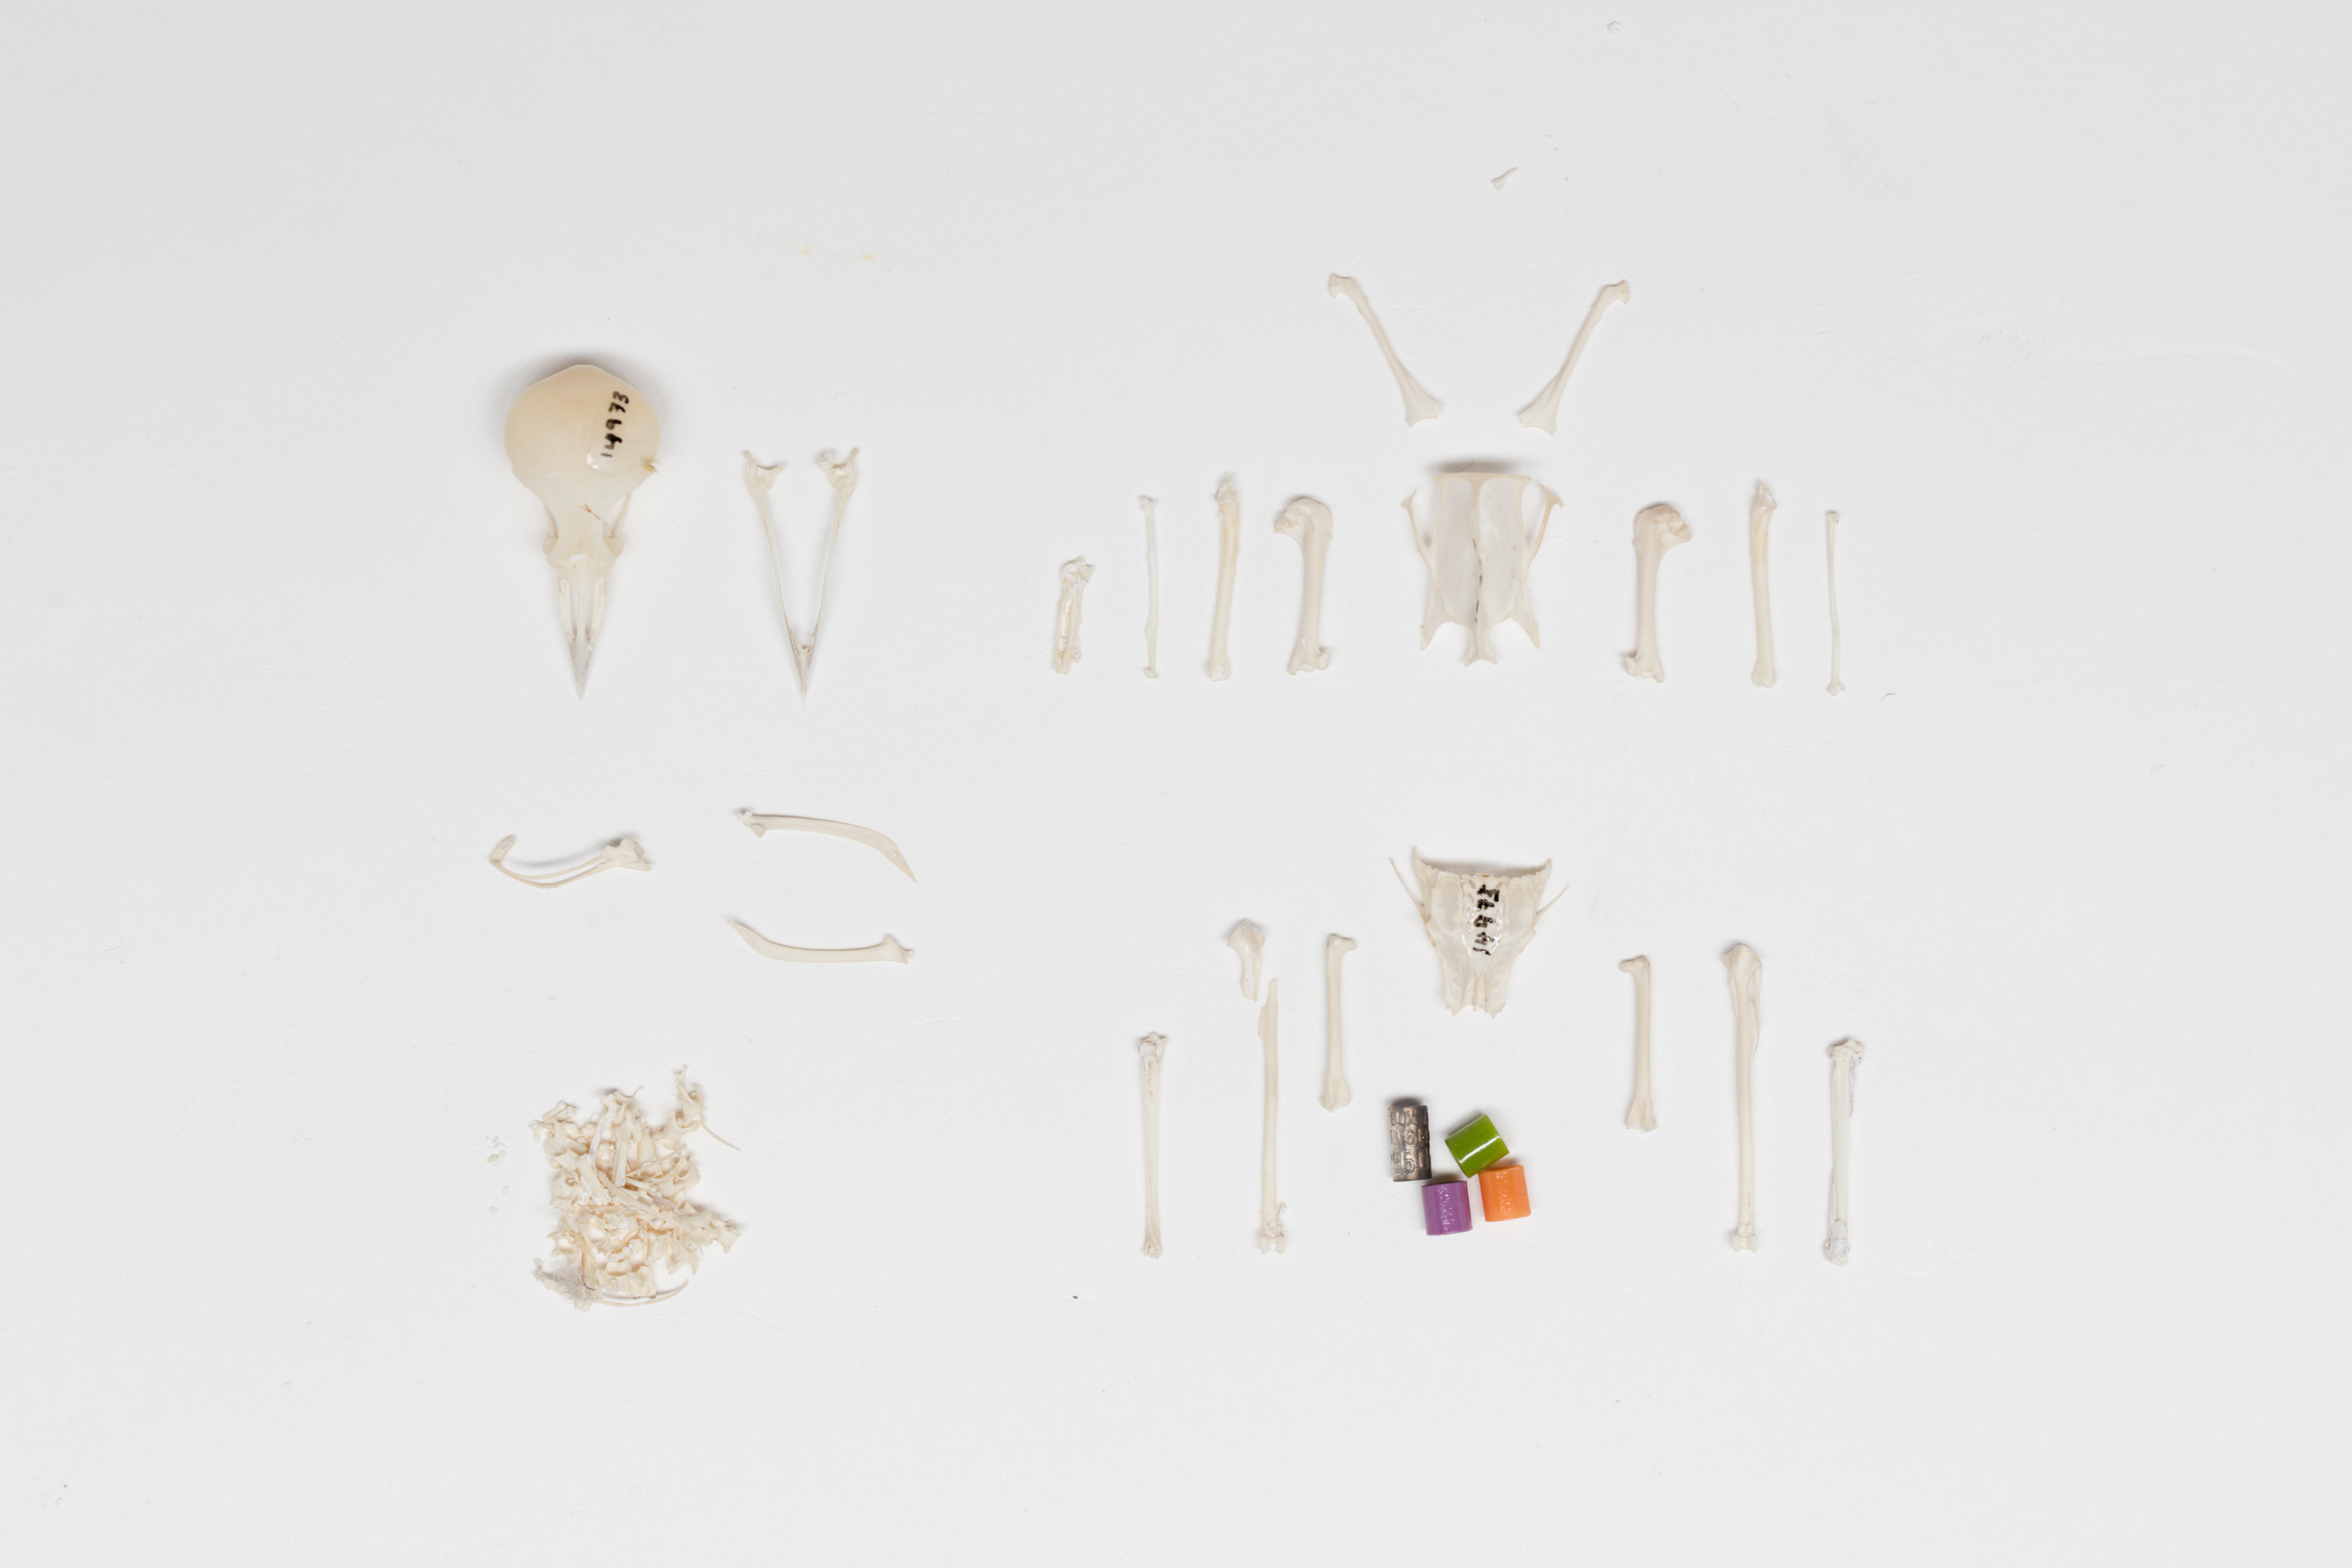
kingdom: Animalia
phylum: Chordata
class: Aves
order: Passeriformes
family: Zosteropidae
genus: Zosterops
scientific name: Zosterops lateralis
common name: Silvereye
